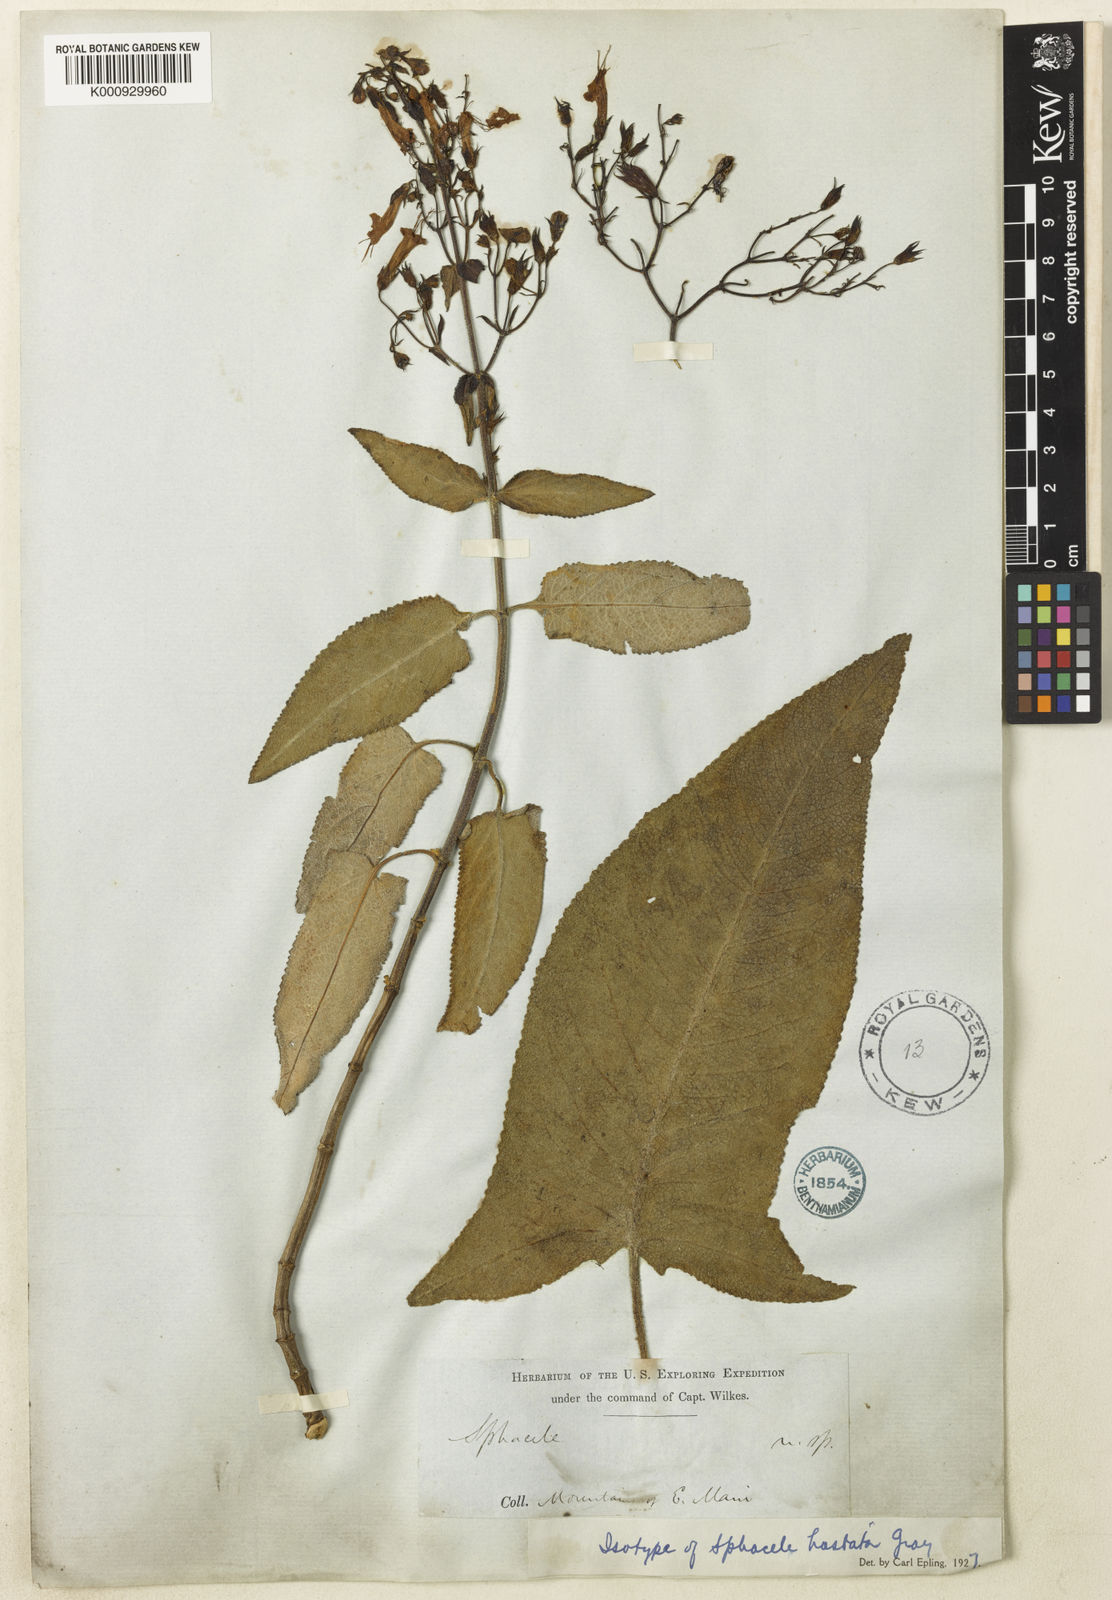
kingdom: Plantae
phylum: Tracheophyta
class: Magnoliopsida
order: Lamiales
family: Lamiaceae
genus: Lepechinia
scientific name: Lepechinia hastata
